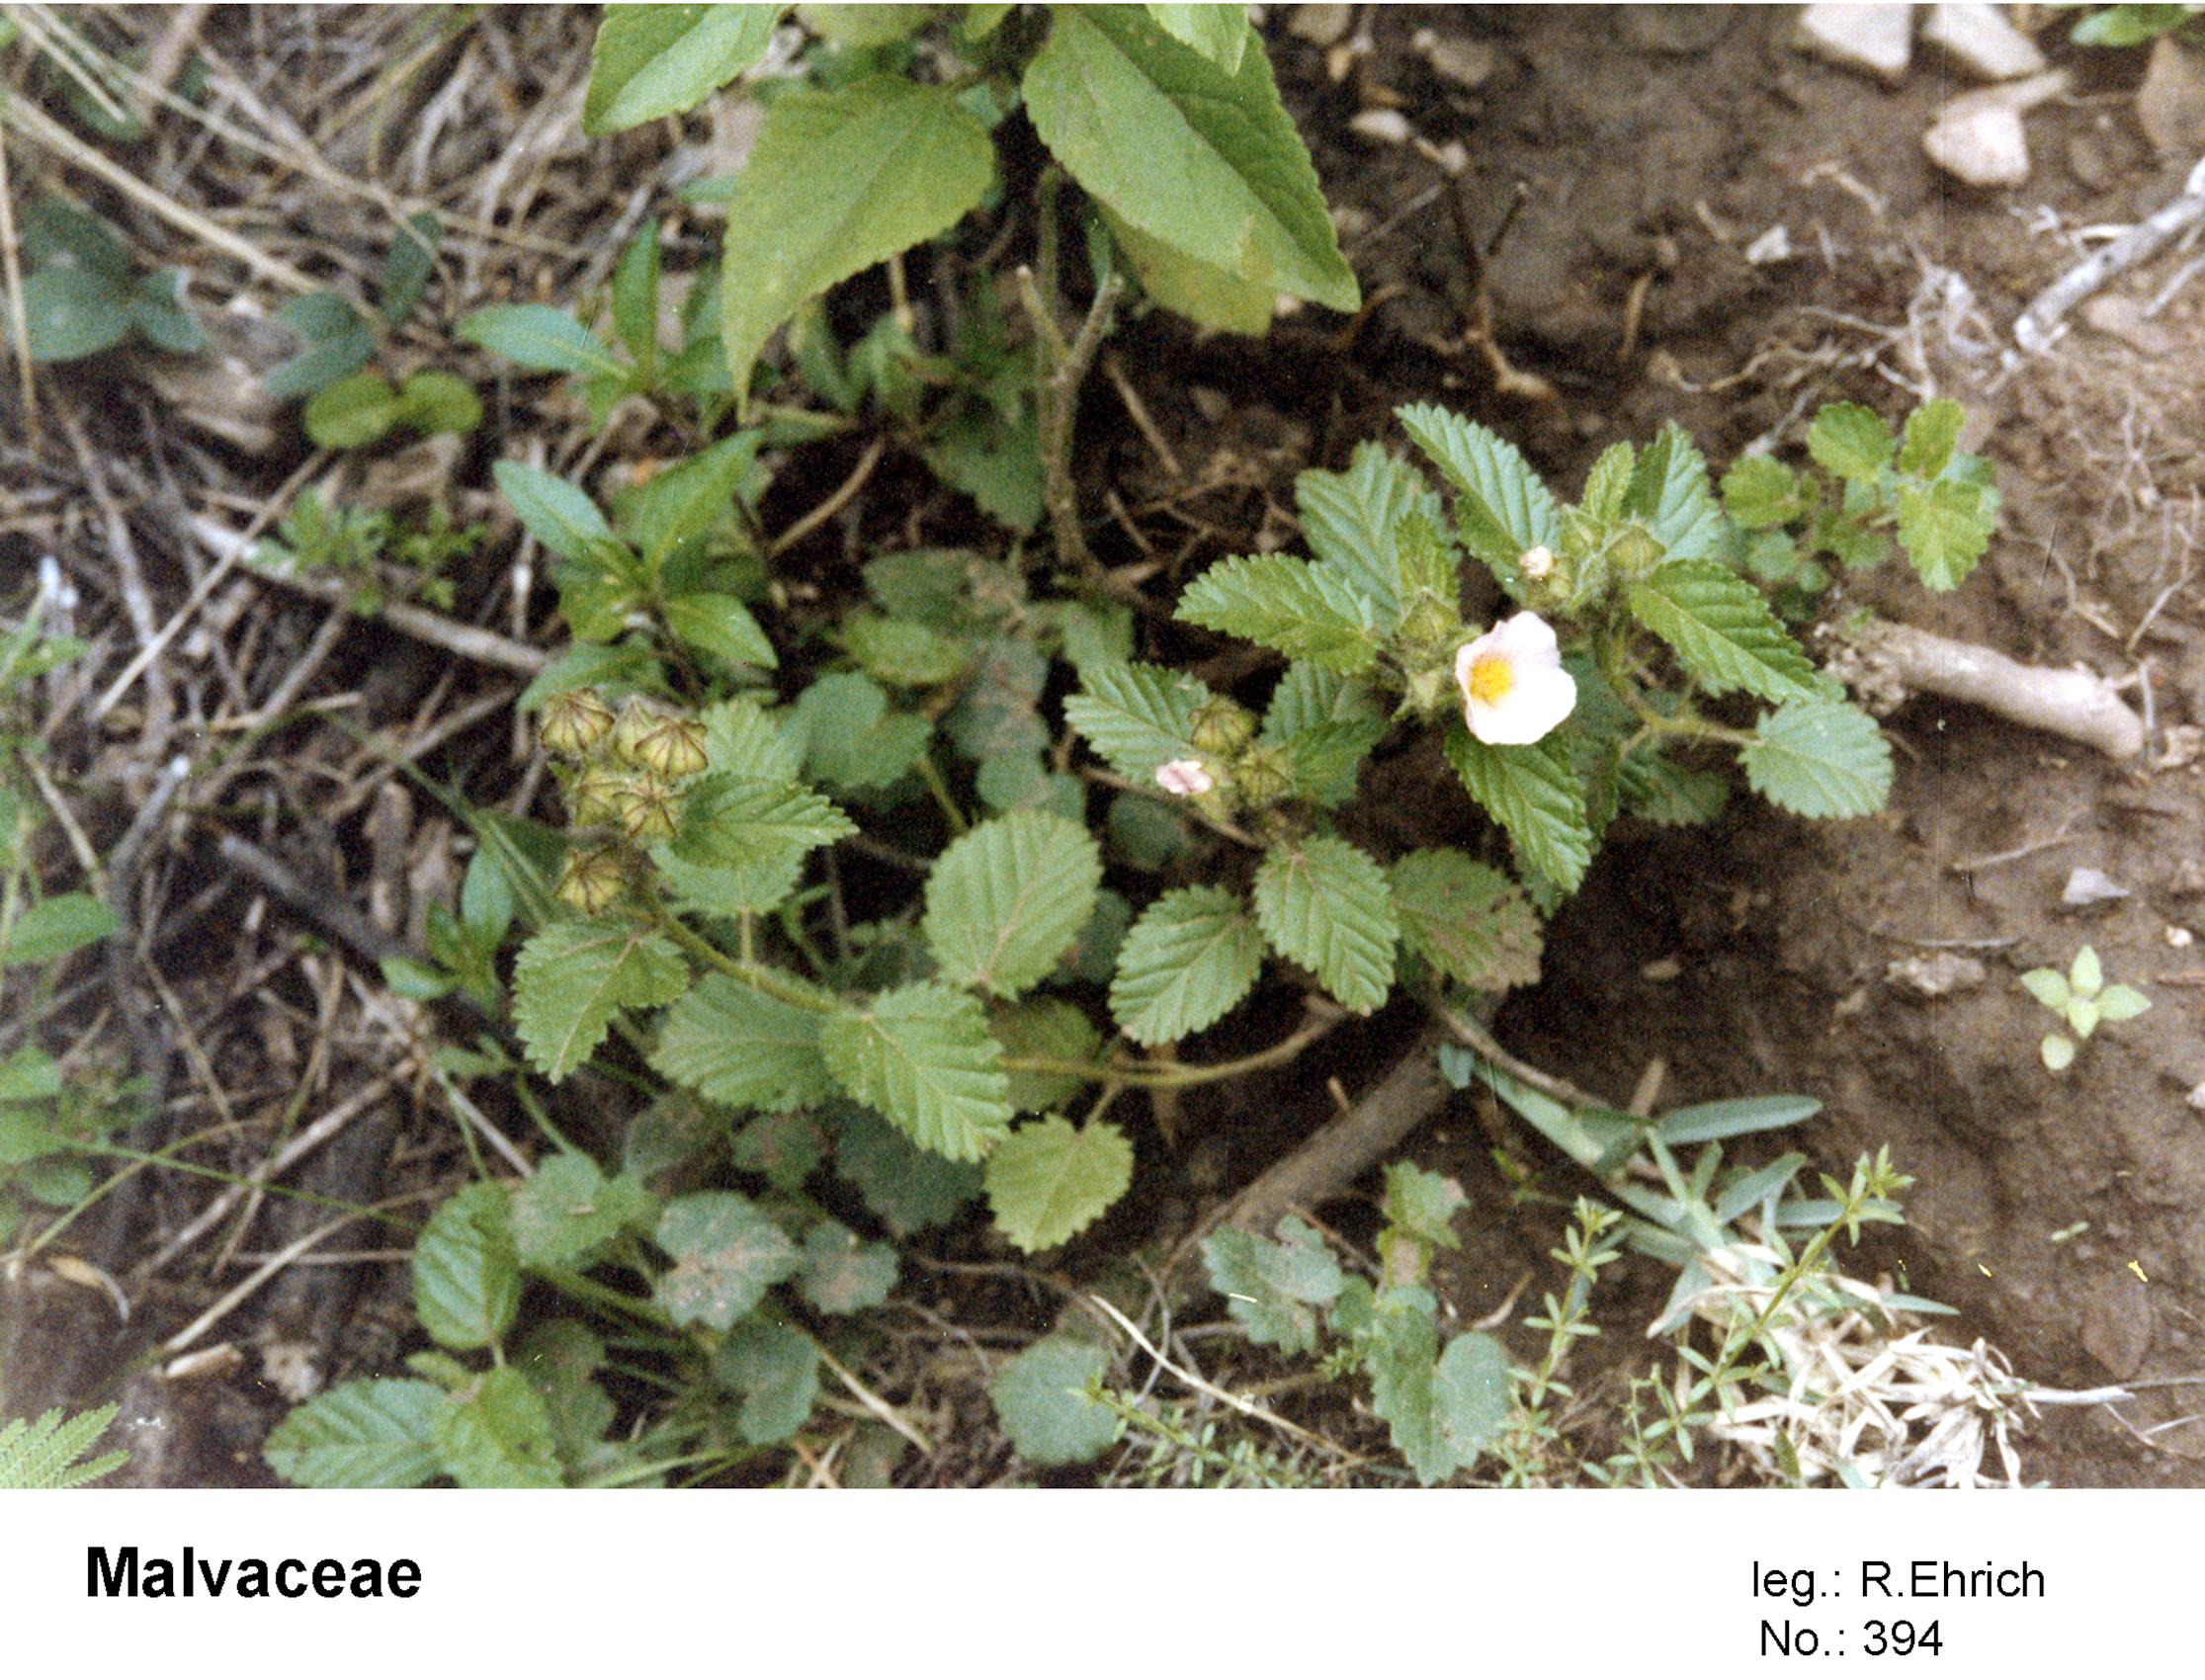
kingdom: Plantae
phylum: Tracheophyta
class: Magnoliopsida
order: Malvales
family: Malvaceae
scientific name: Malvaceae
